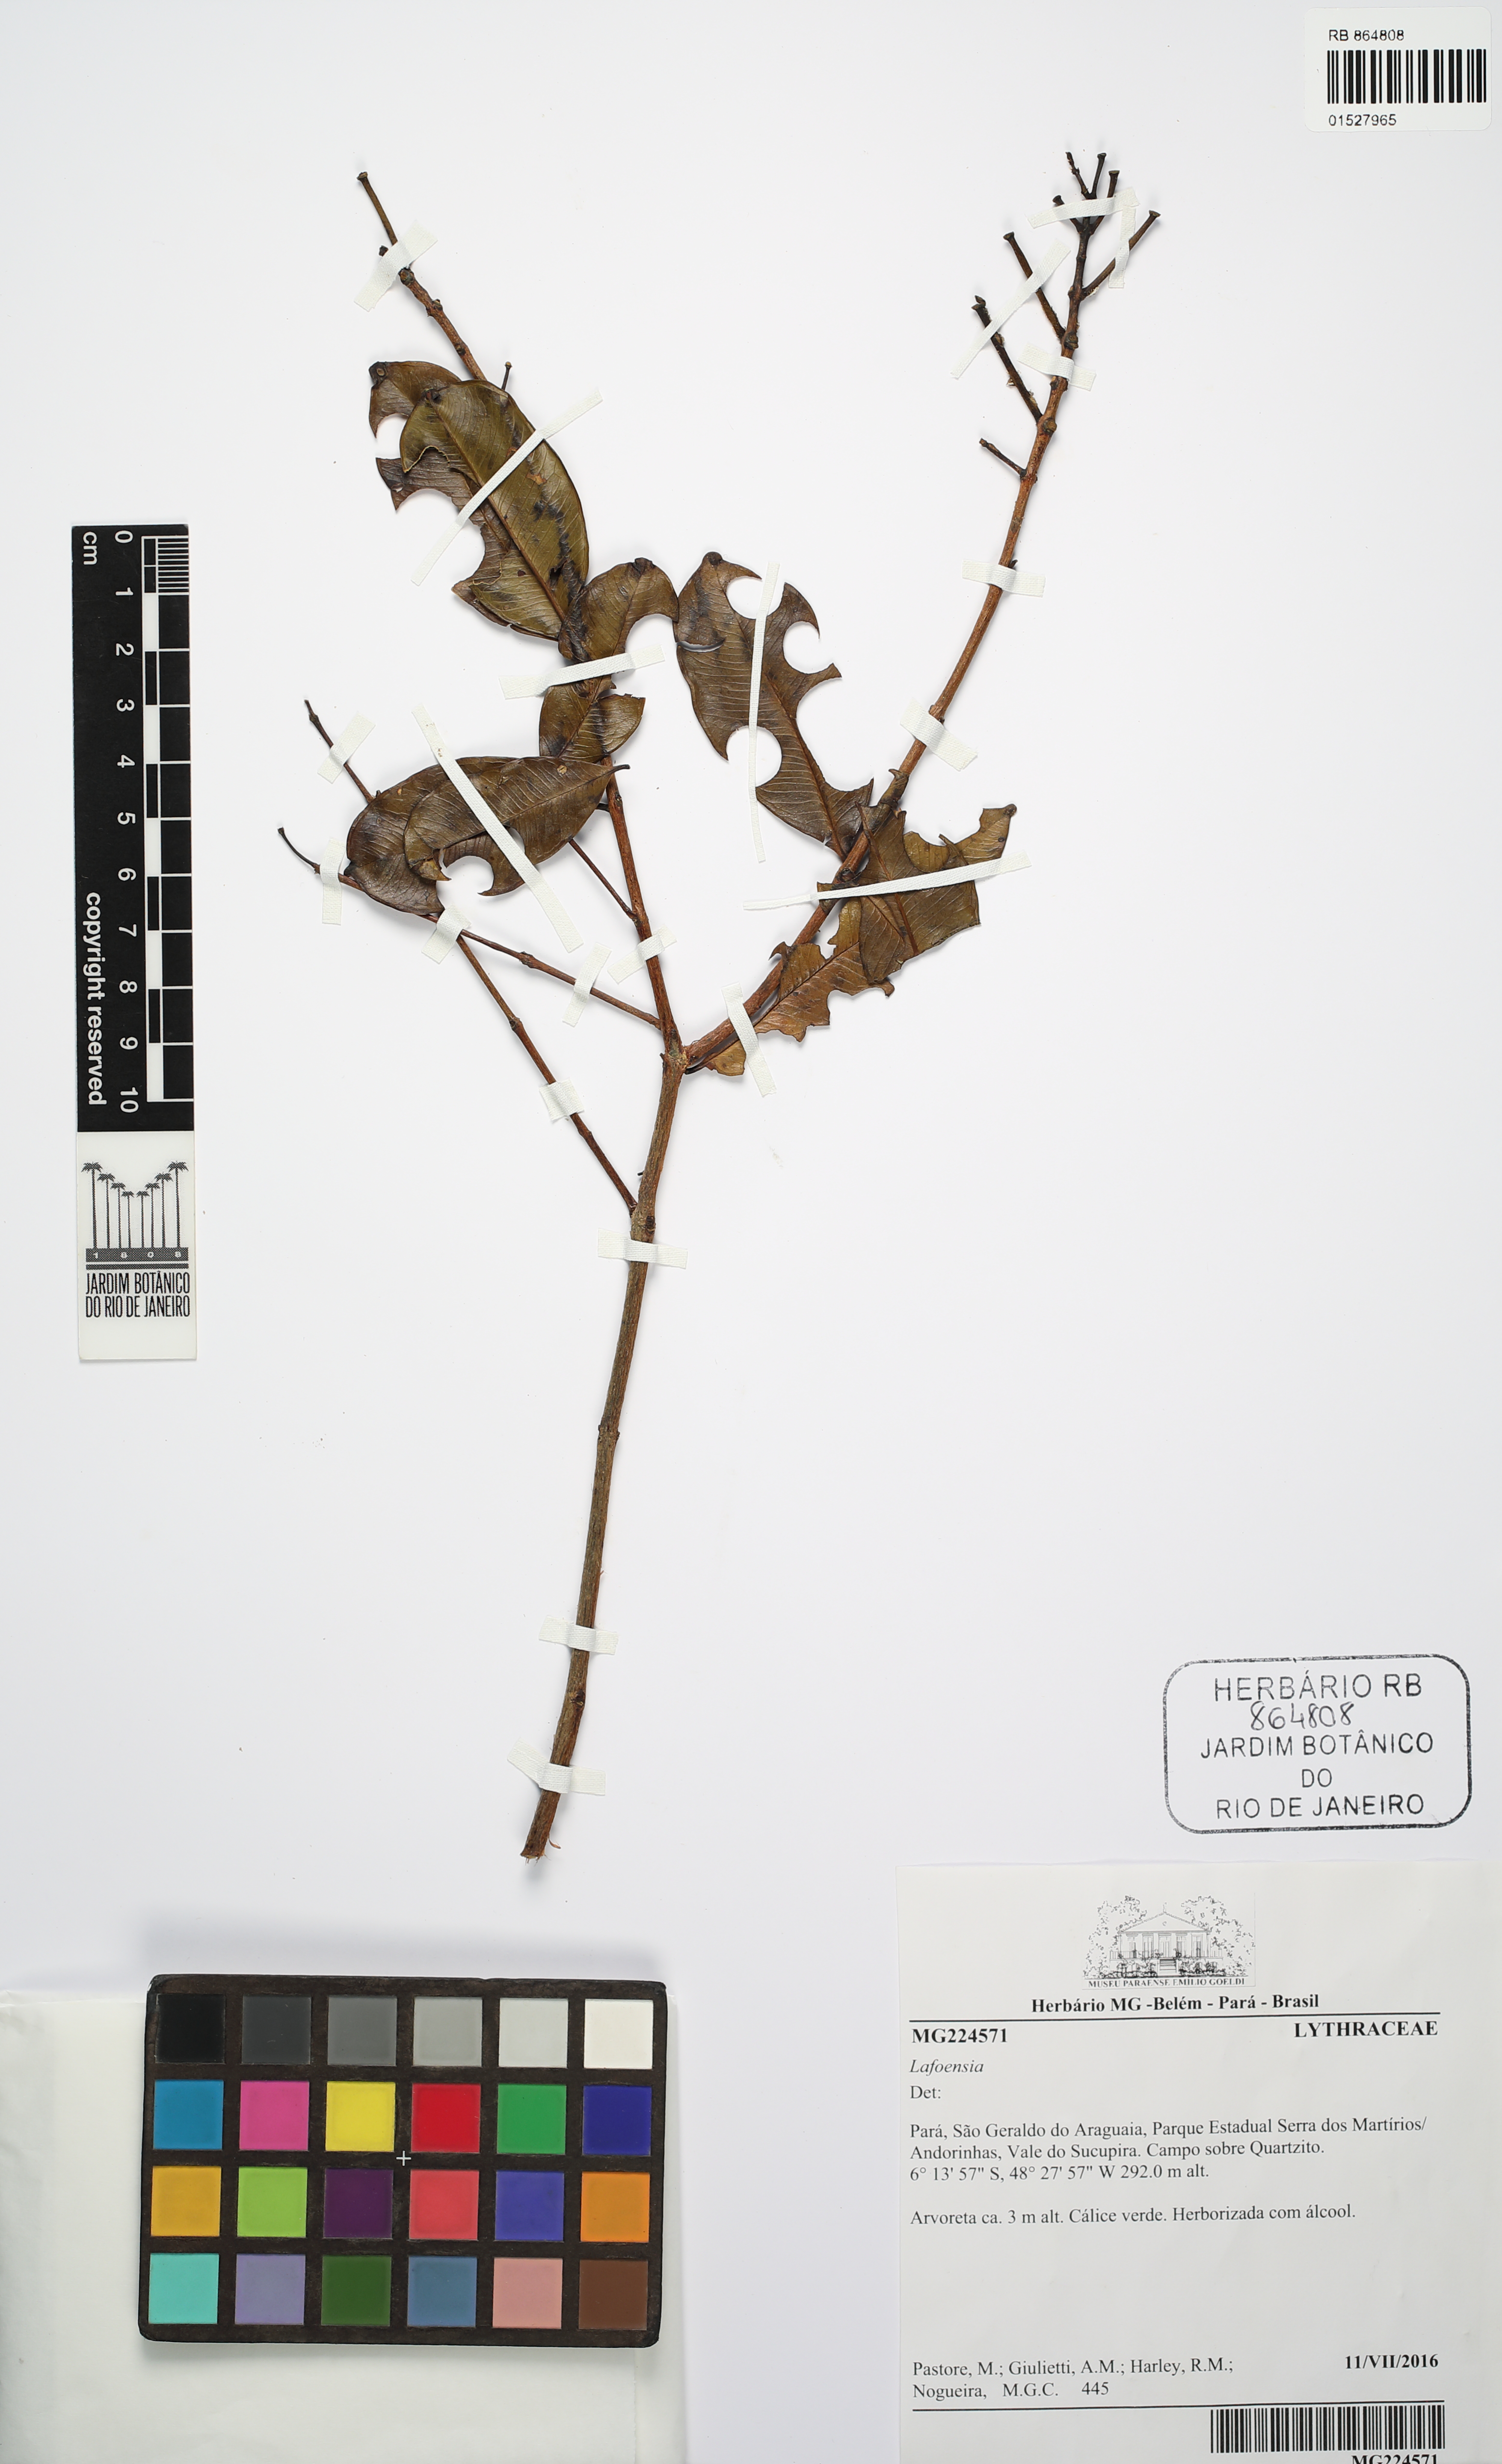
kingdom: Plantae
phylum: Tracheophyta
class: Magnoliopsida
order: Myrtales
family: Lythraceae
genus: Lafoensia
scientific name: Lafoensia
